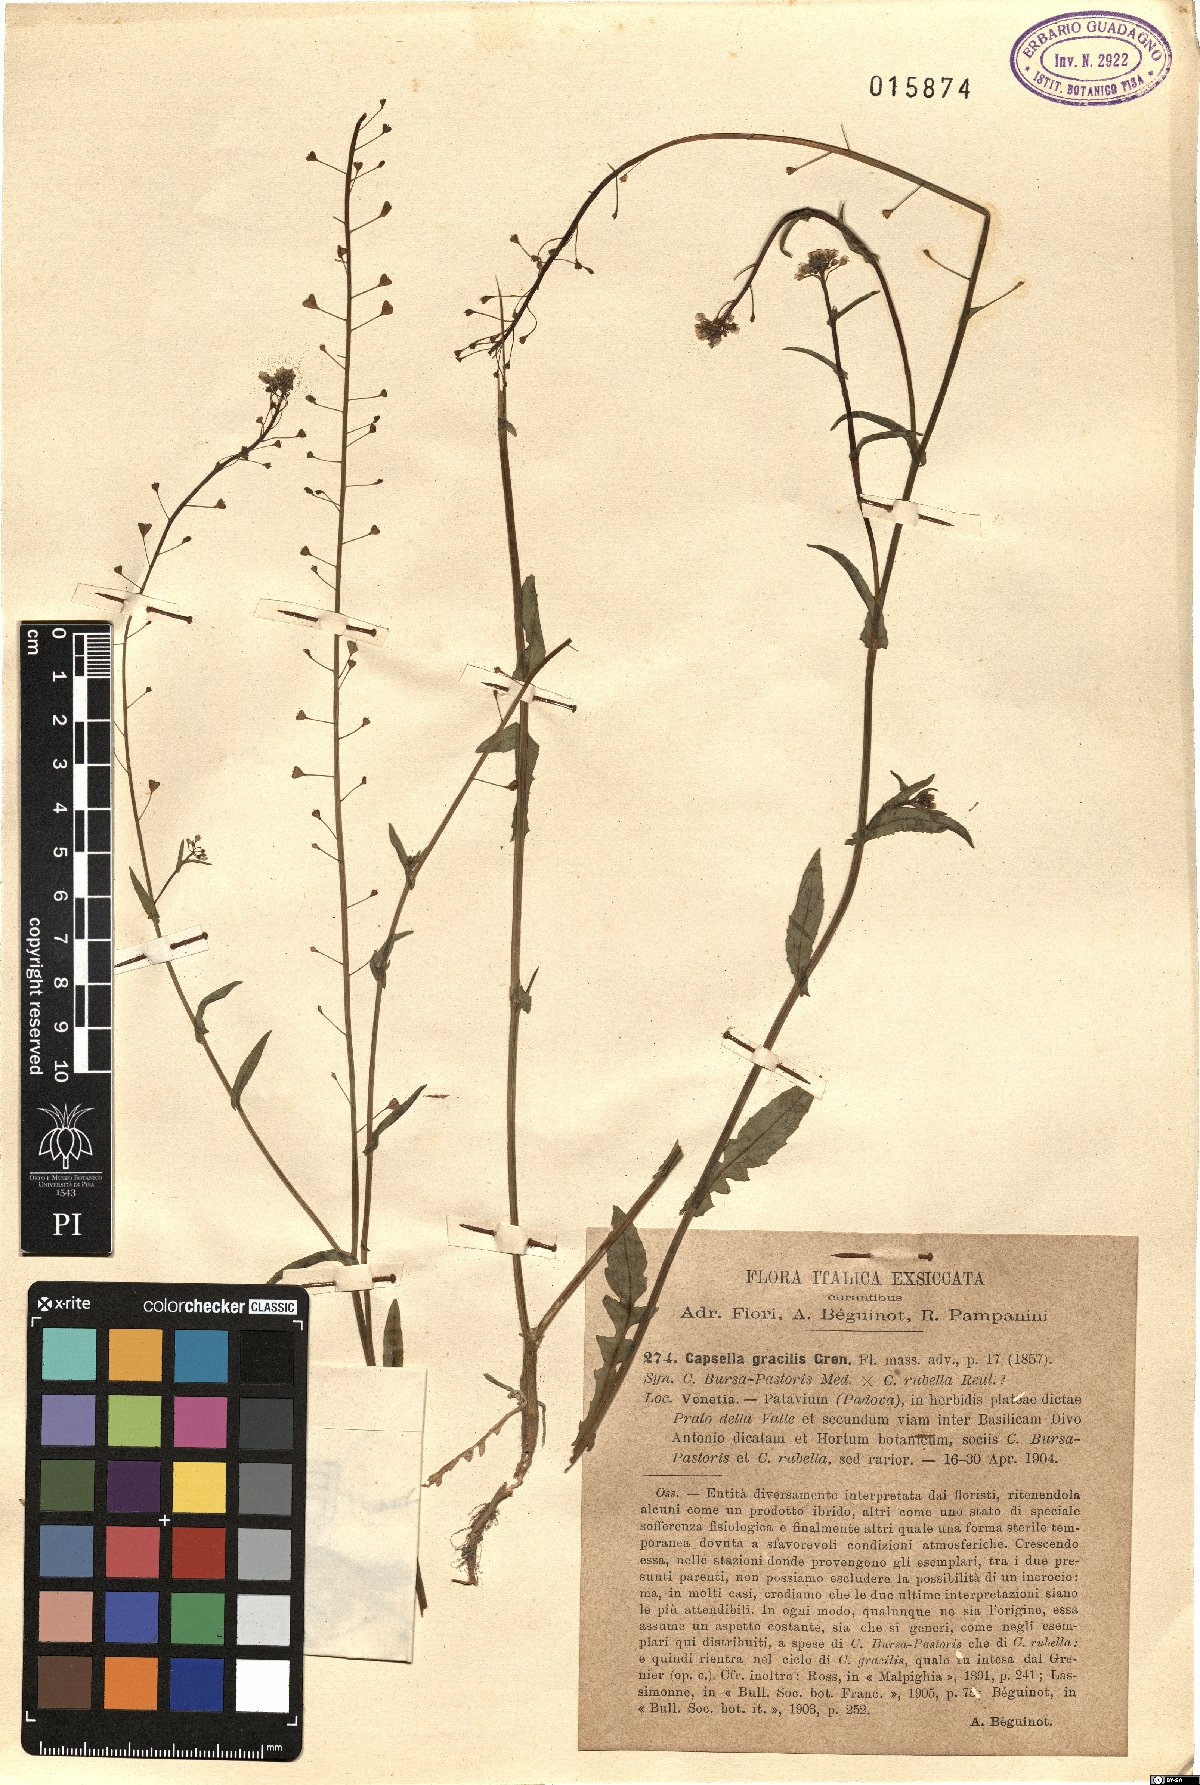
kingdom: Plantae
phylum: Tracheophyta
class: Magnoliopsida
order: Brassicales
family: Brassicaceae
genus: Capsella
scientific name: Capsella rubella
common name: Pink shepherd's-purse
